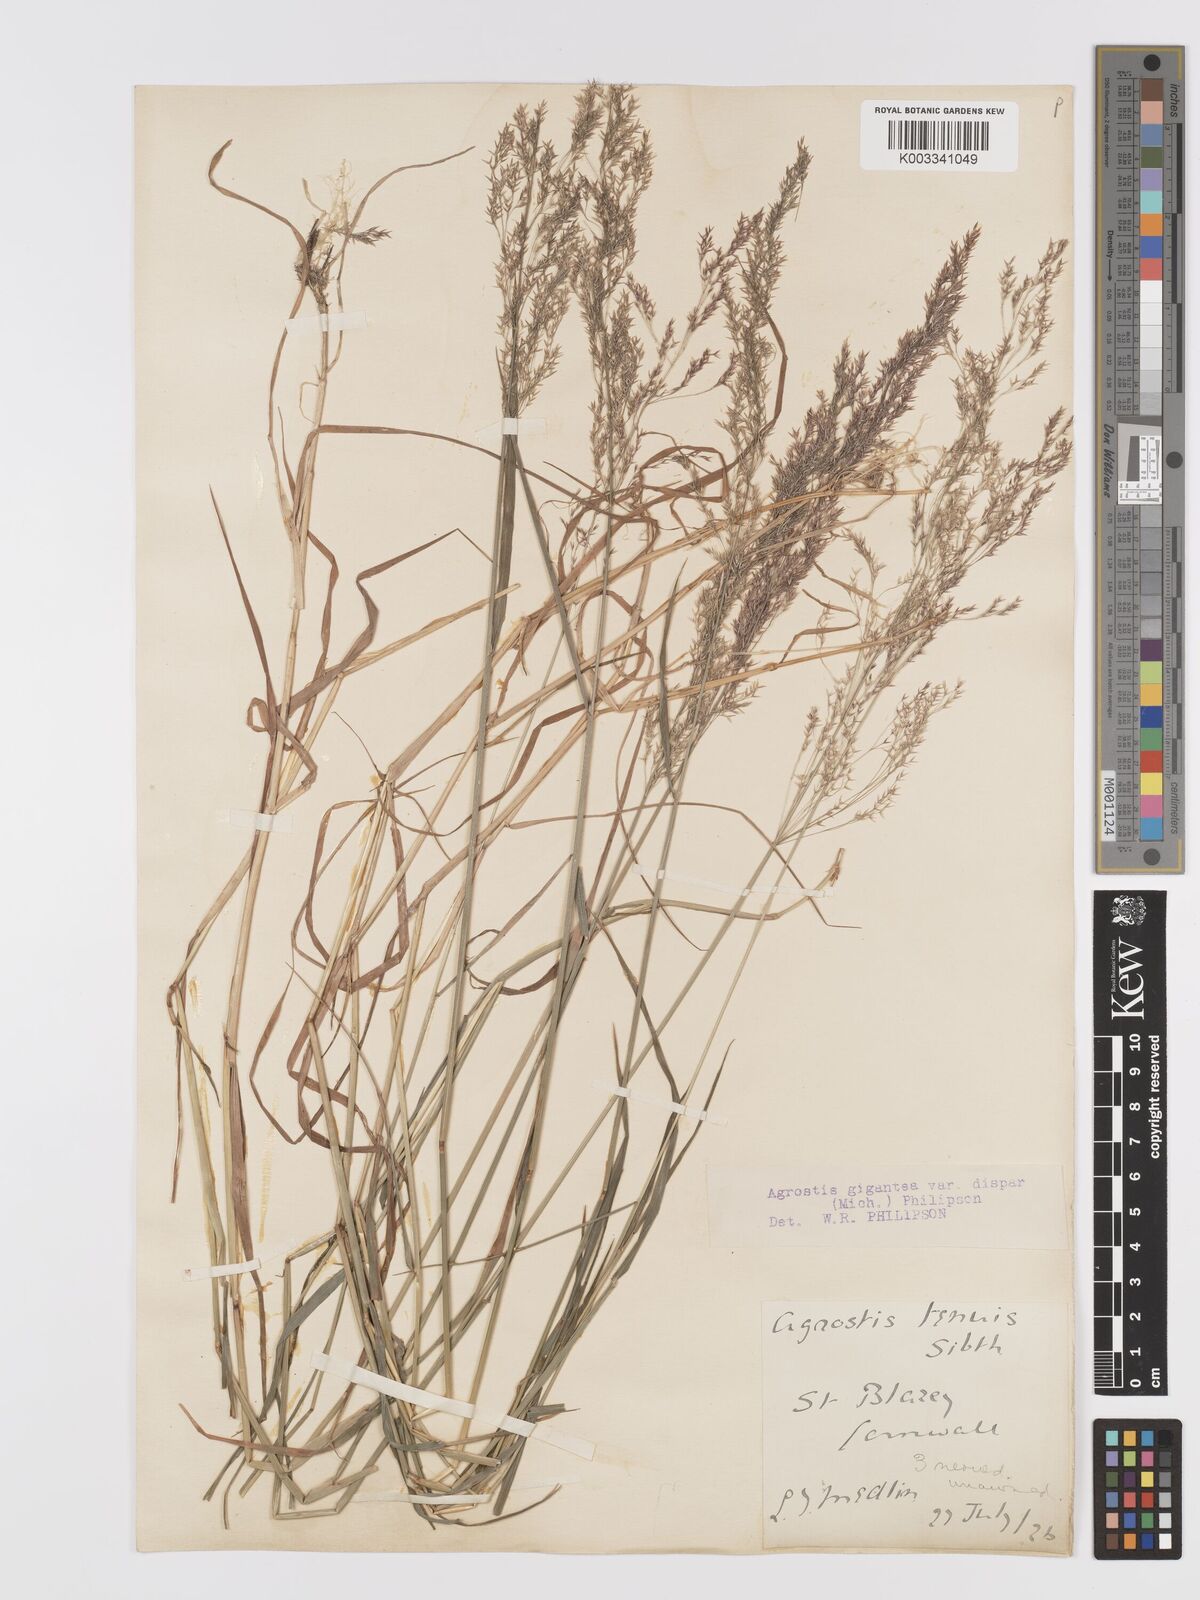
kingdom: Plantae
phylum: Tracheophyta
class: Liliopsida
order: Poales
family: Poaceae
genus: Agrostis
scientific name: Agrostis gigantea
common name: Black bent
